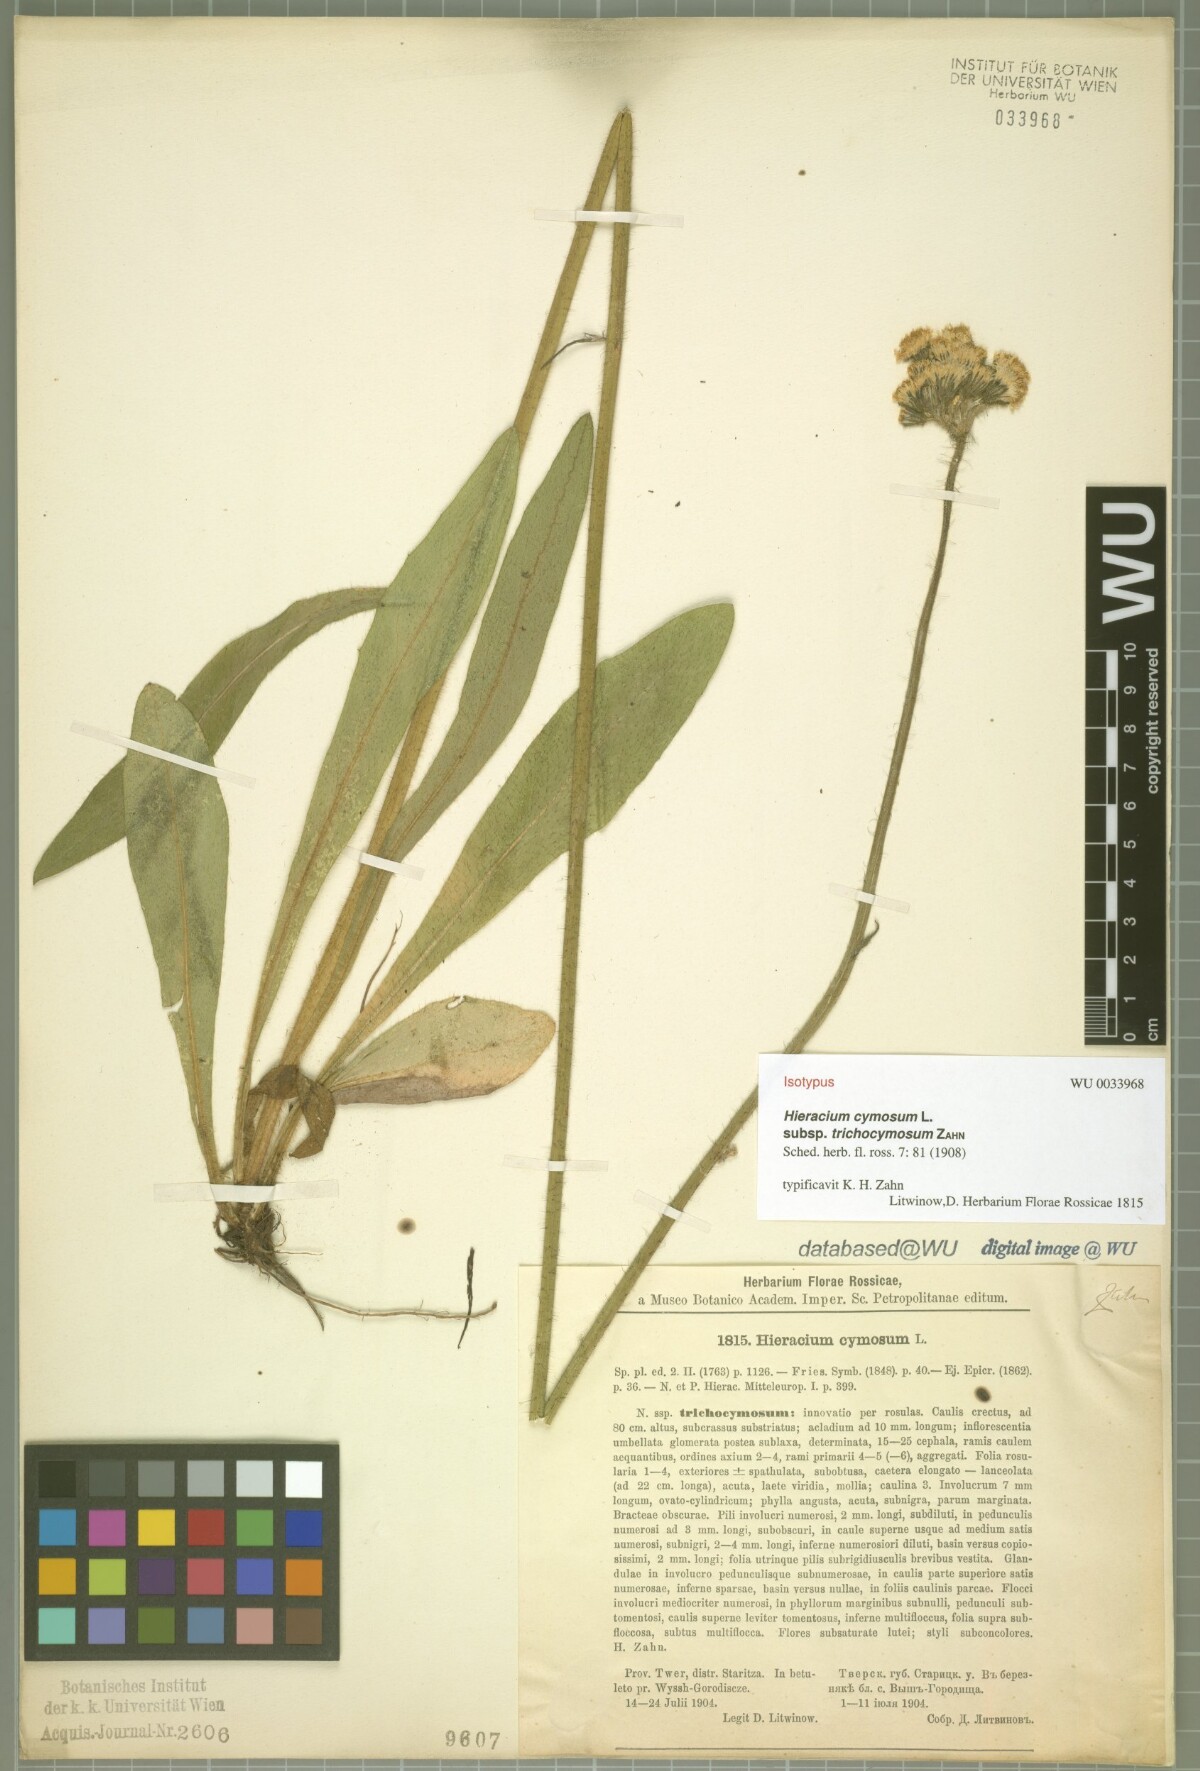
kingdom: Plantae
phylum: Tracheophyta
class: Magnoliopsida
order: Asterales
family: Asteraceae
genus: Pilosella
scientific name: Pilosella cymosa
